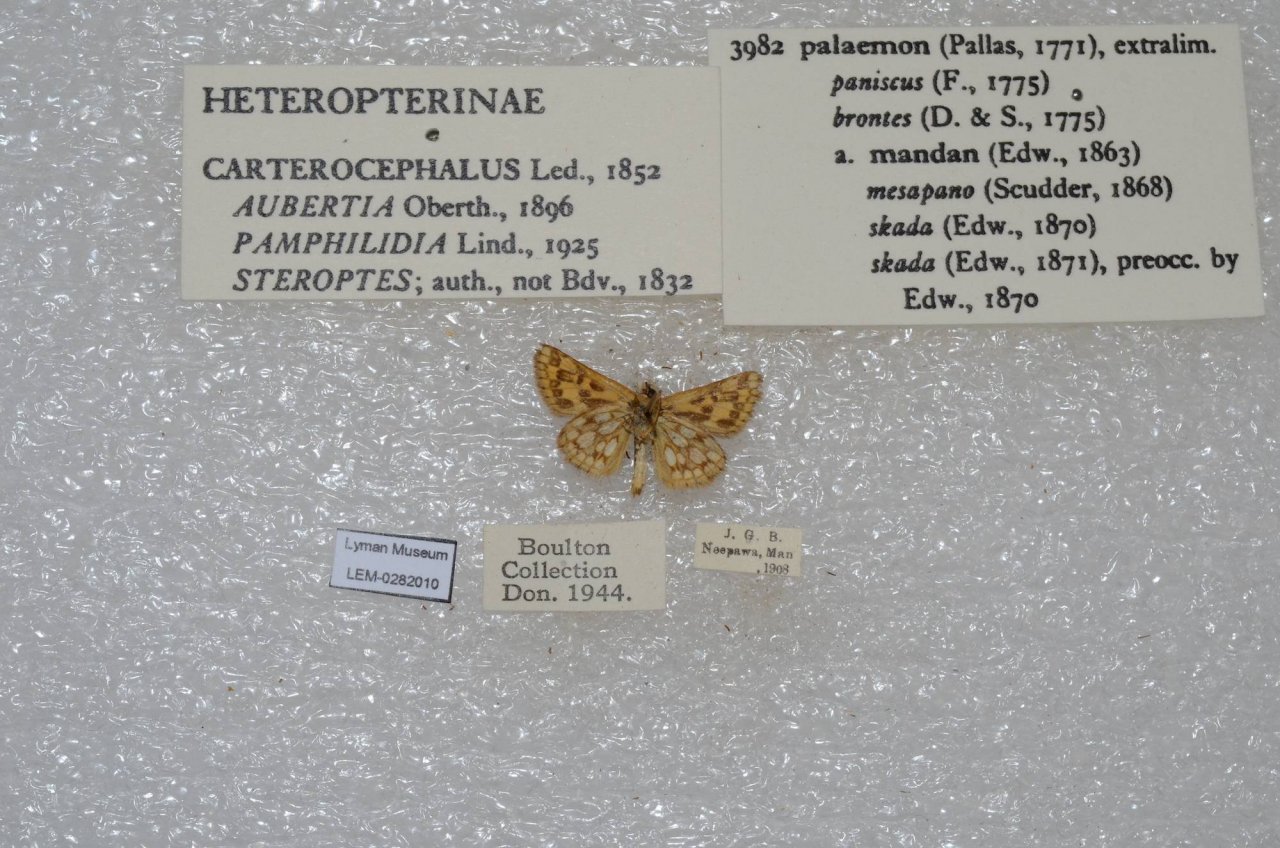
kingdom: Animalia
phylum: Arthropoda
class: Insecta
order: Lepidoptera
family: Hesperiidae
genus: Carterocephalus
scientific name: Carterocephalus palaemon
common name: Chequered Skipper
